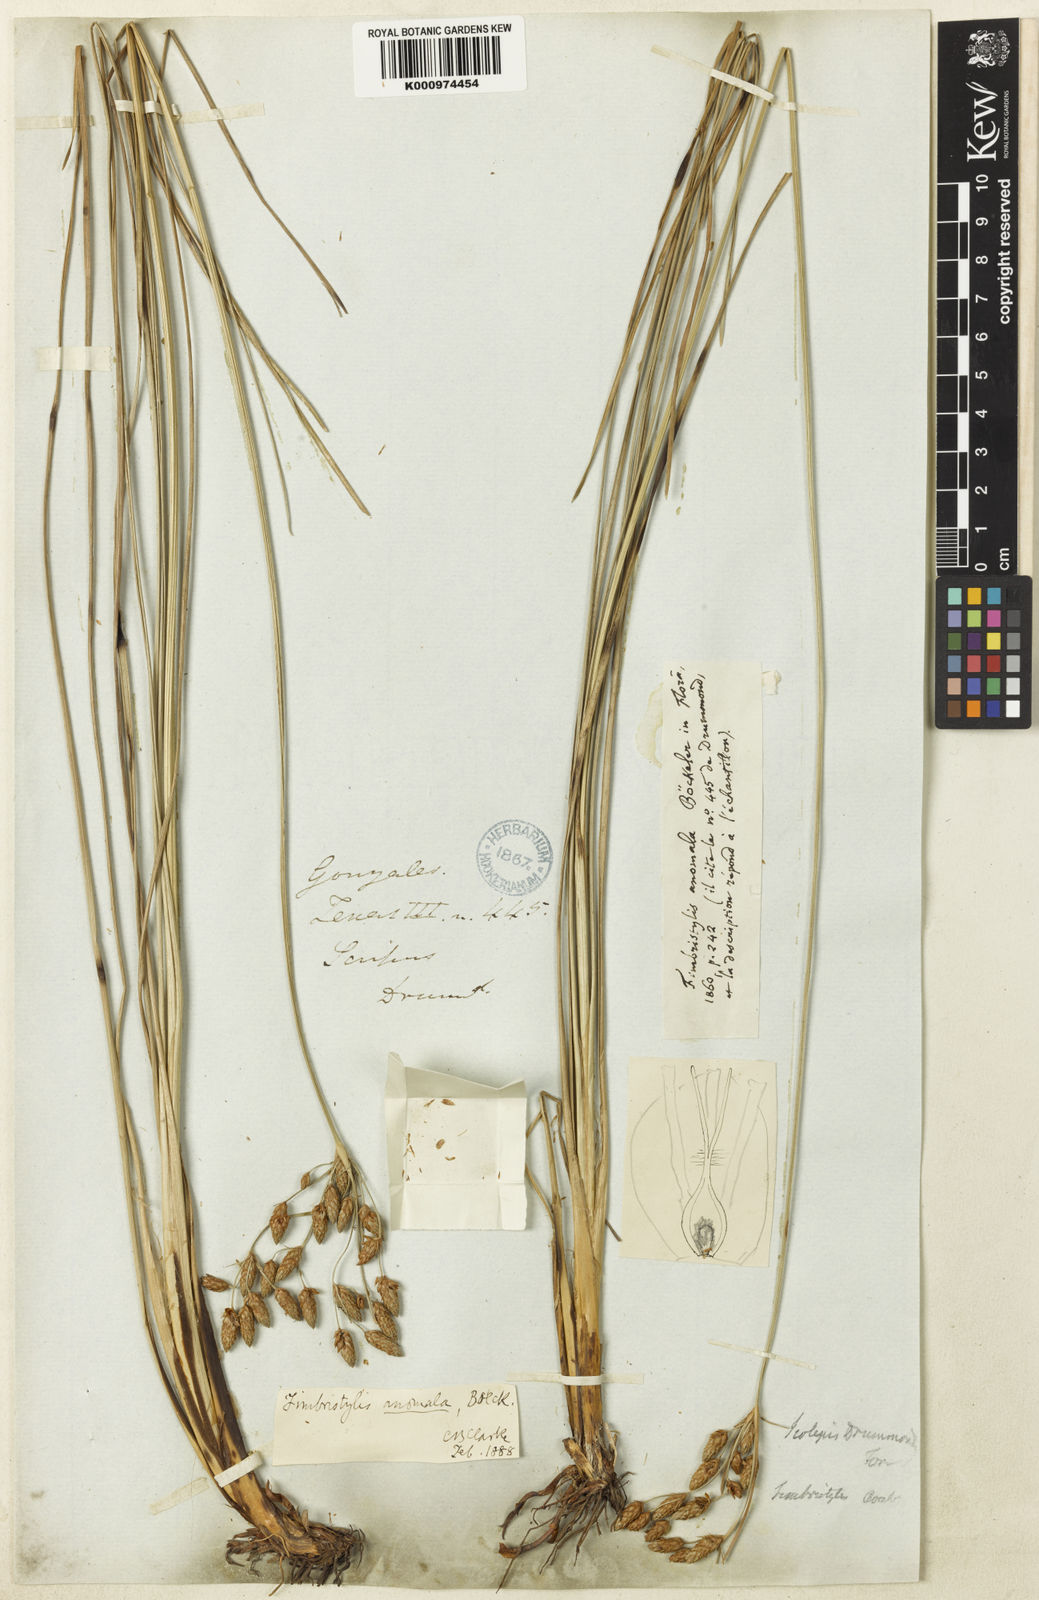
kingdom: Plantae
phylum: Tracheophyta
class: Liliopsida
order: Poales
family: Cyperaceae
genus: Fimbristylis
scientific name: Fimbristylis puberula
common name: Hairy fimbristylis
